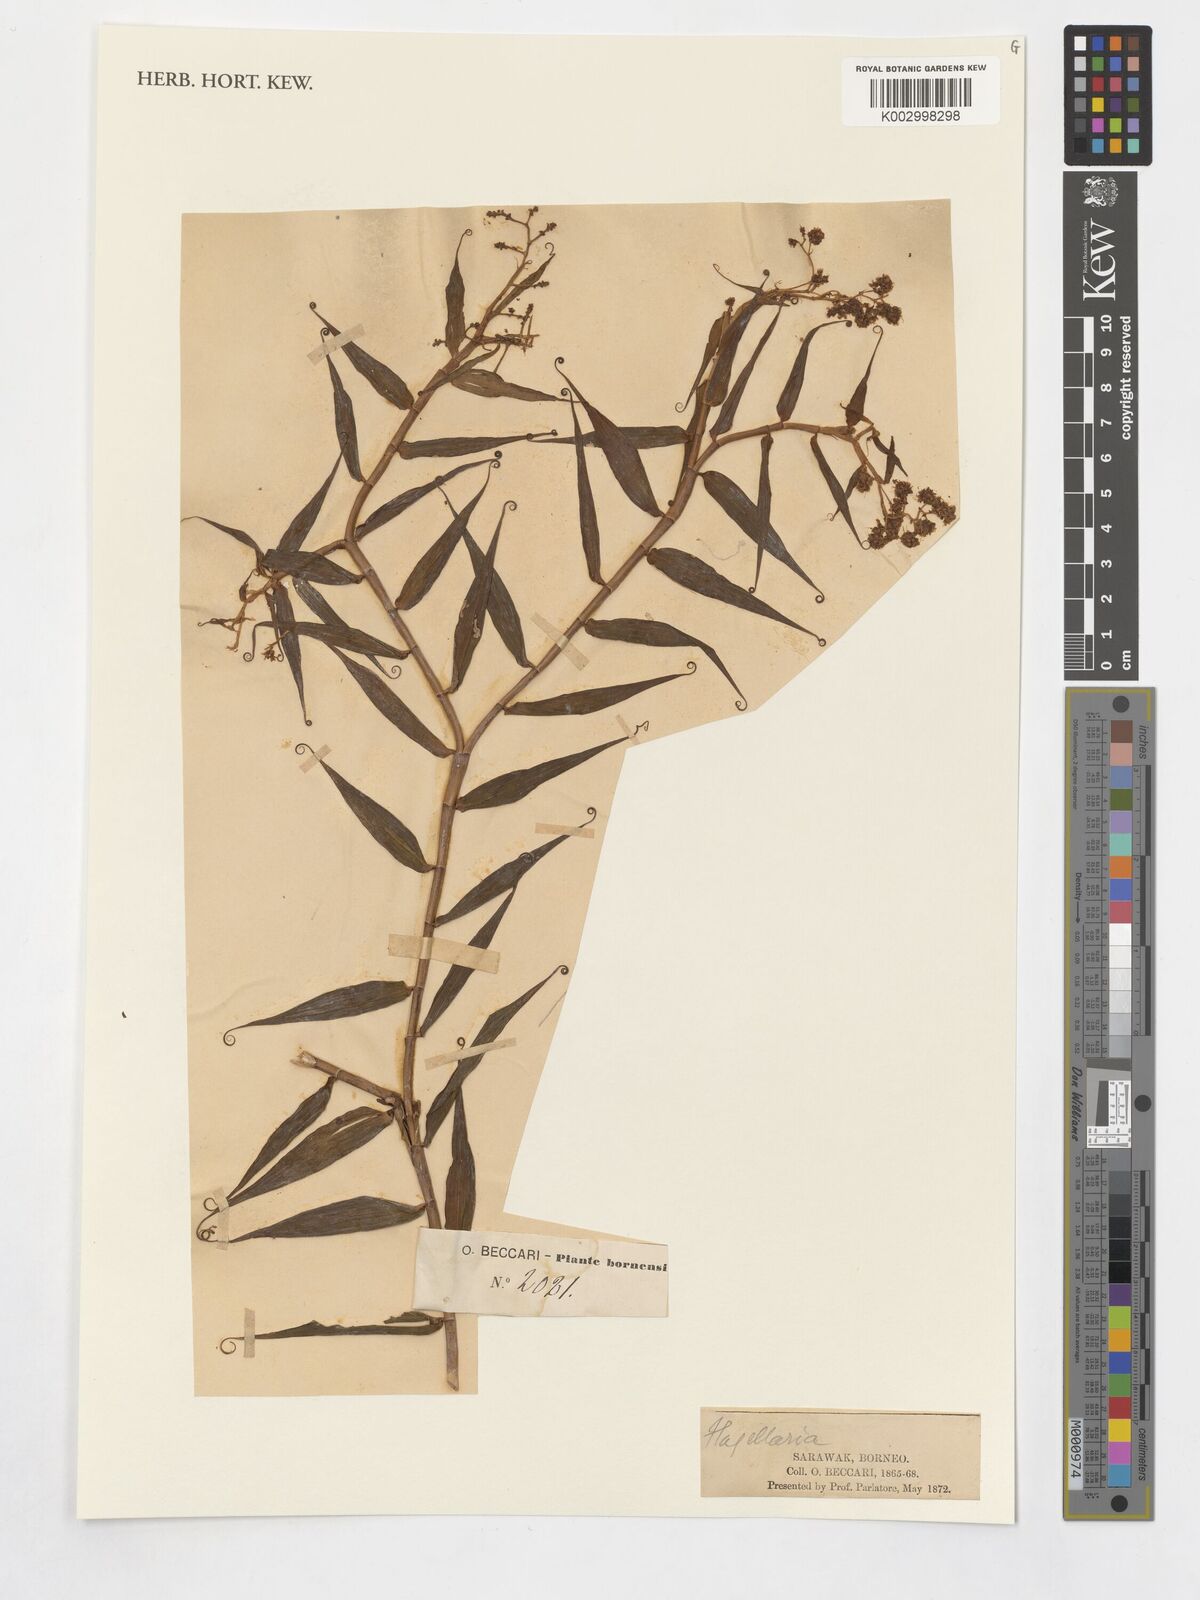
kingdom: Plantae
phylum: Tracheophyta
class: Liliopsida
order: Poales
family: Flagellariaceae
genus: Flagellaria
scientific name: Flagellaria
